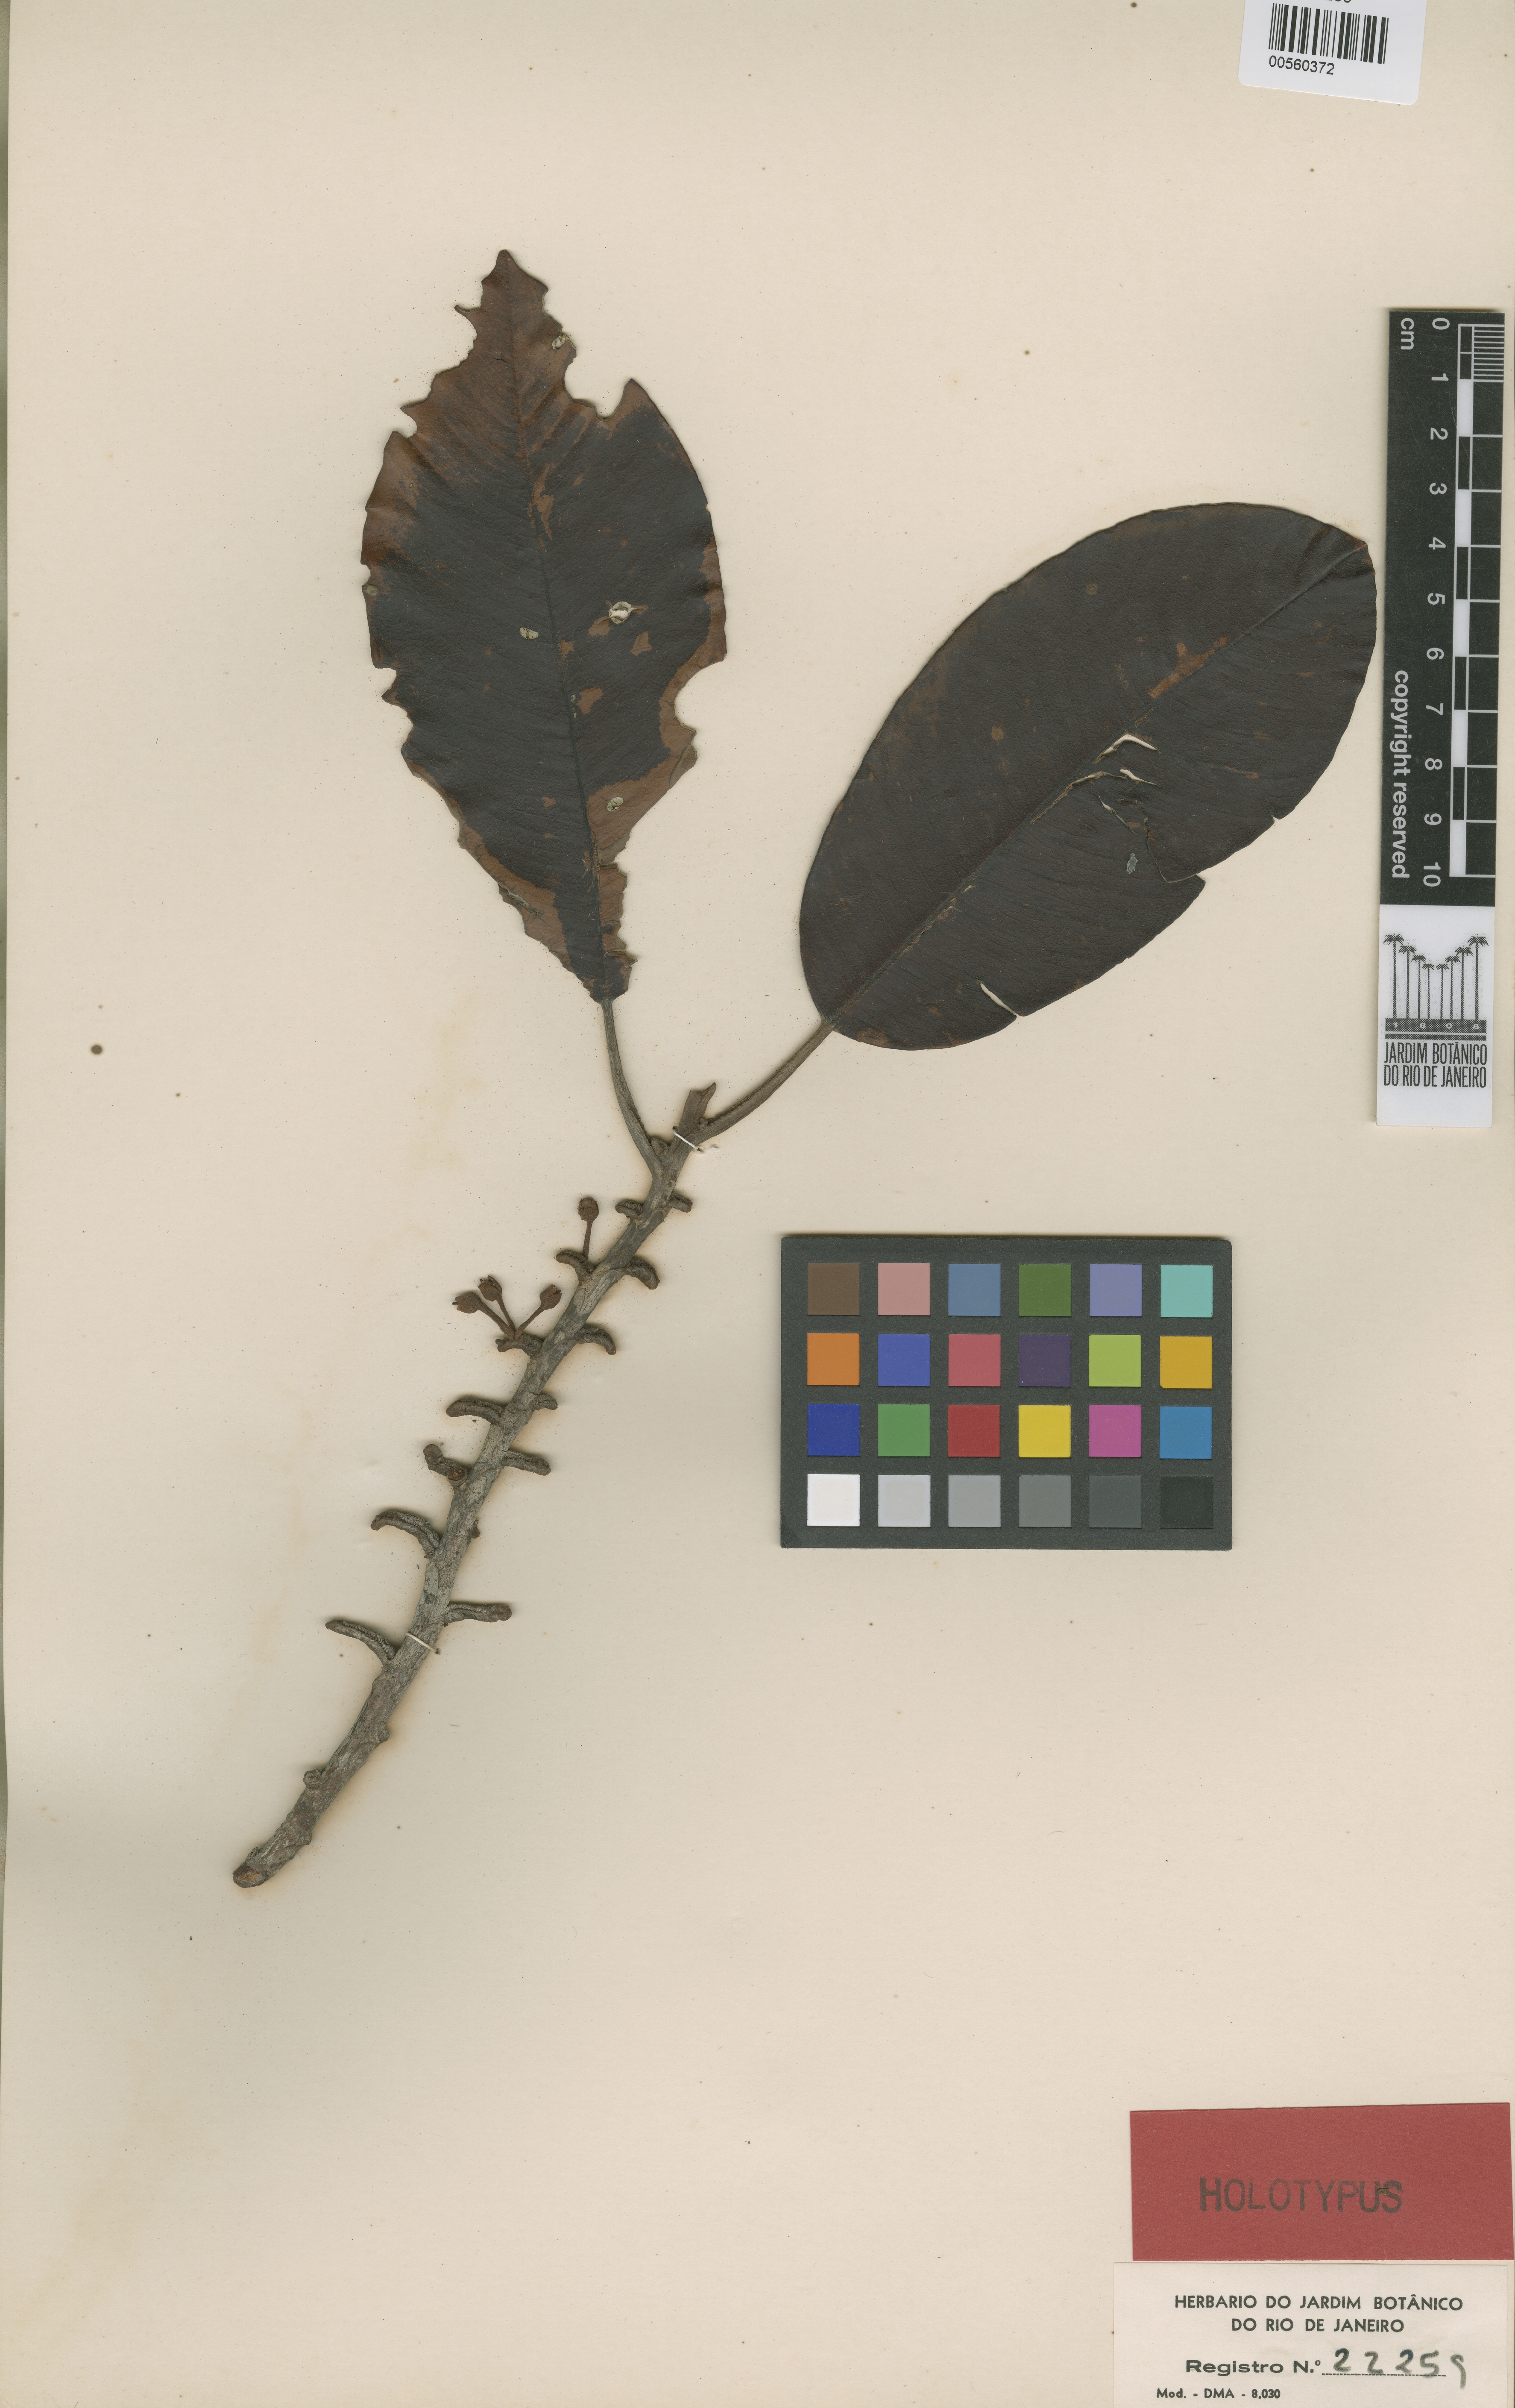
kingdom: Plantae
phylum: Tracheophyta
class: Magnoliopsida
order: Ericales
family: Sapotaceae
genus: Micropholis
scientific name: Micropholis resinifera
